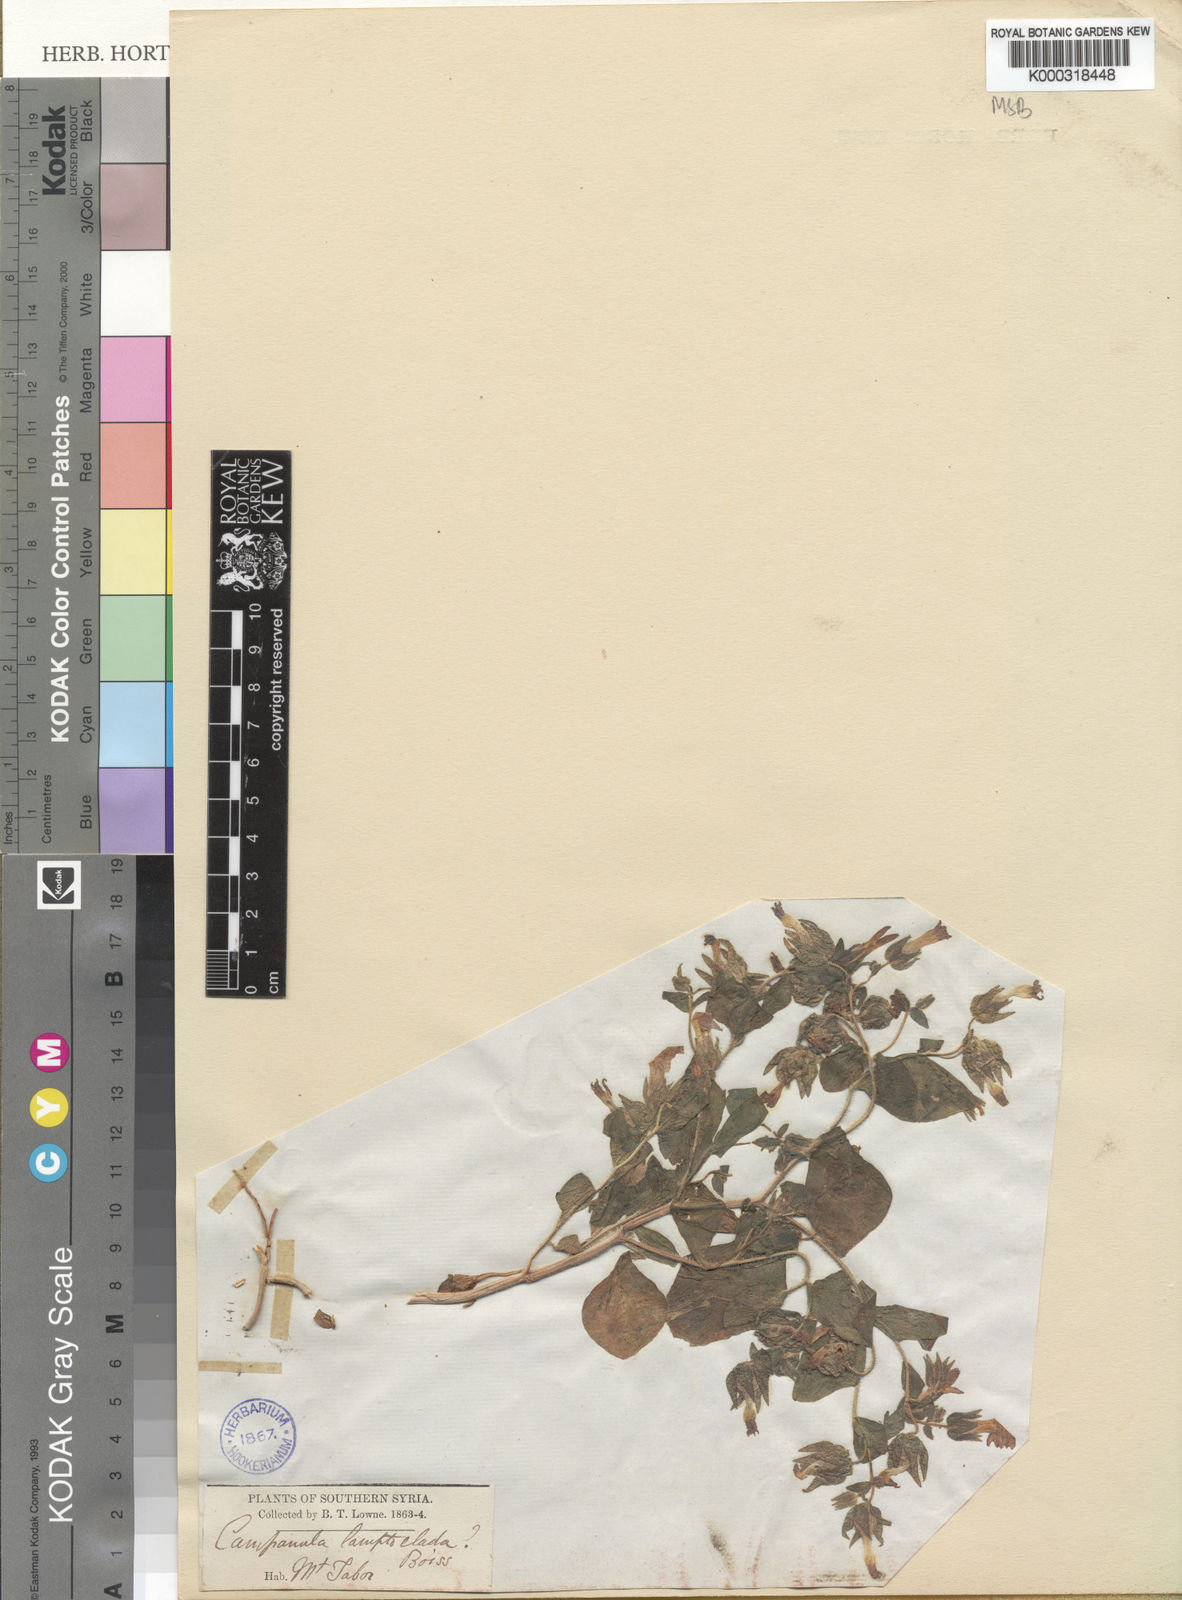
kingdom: Plantae
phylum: Tracheophyta
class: Magnoliopsida
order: Asterales
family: Campanulaceae
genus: Campanula
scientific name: Campanula camptoclada
